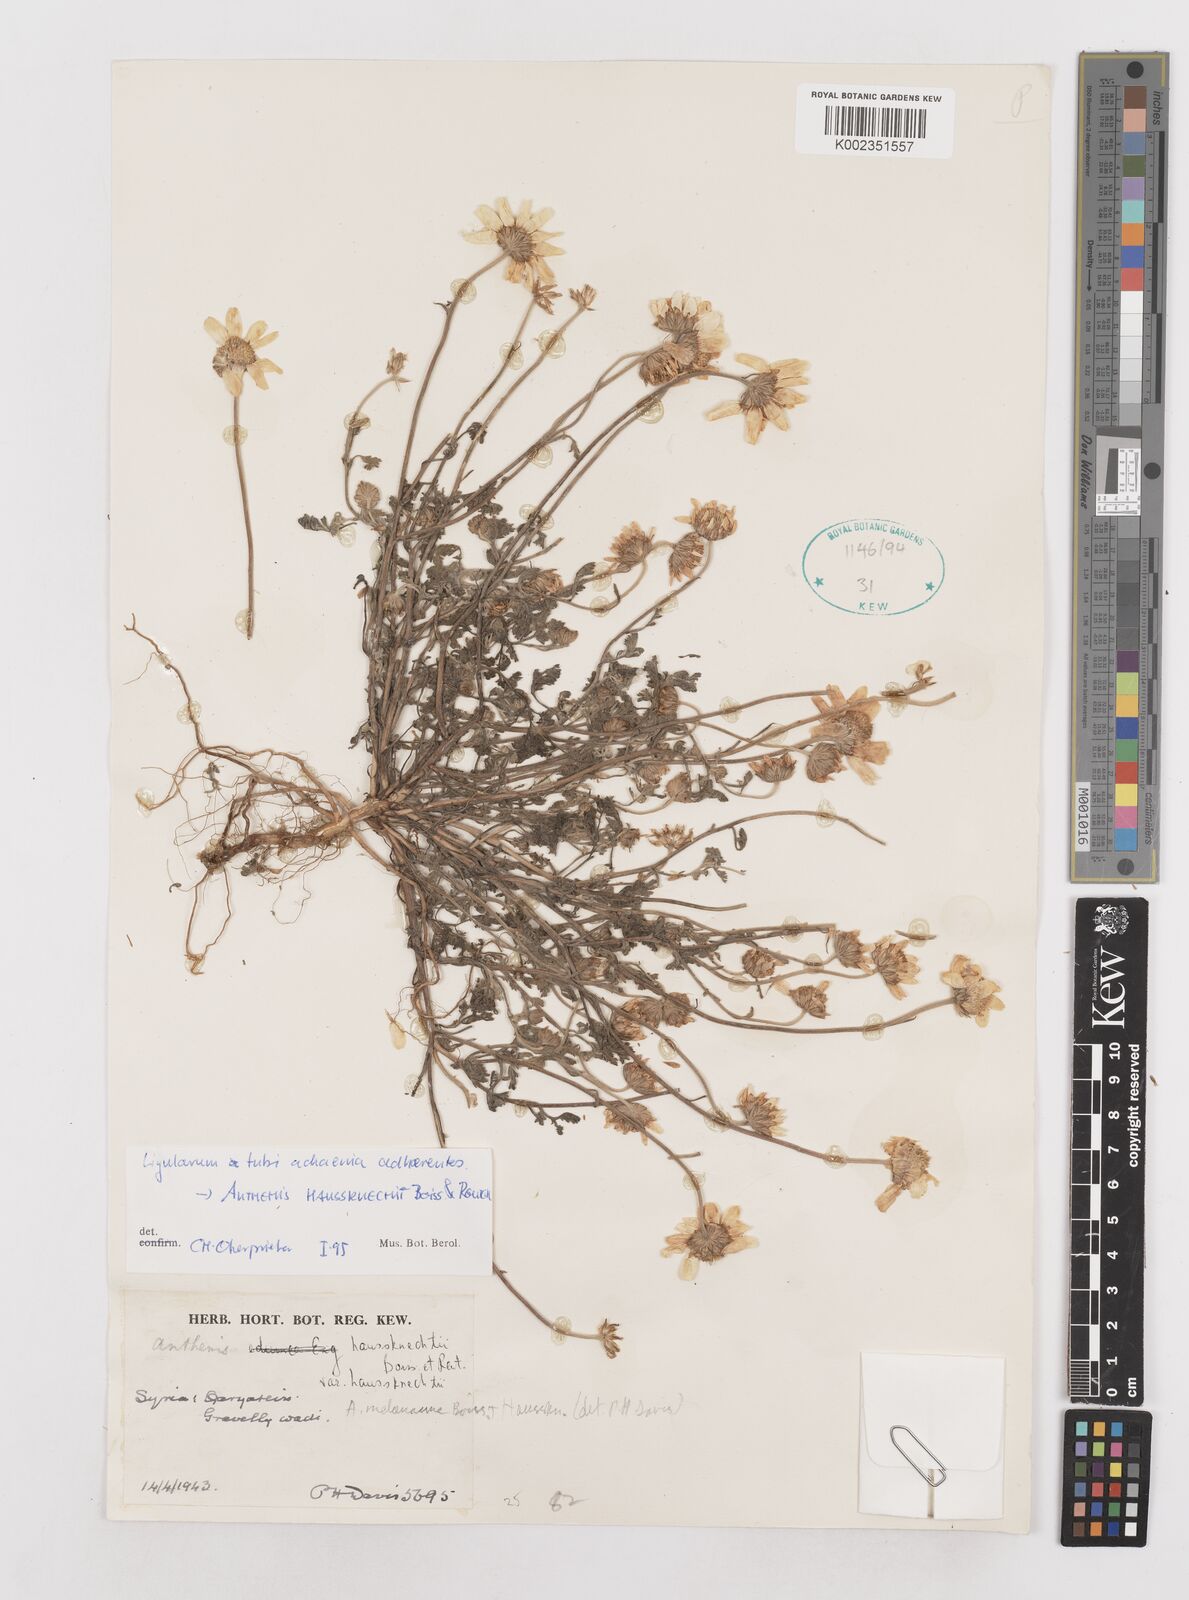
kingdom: Plantae
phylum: Tracheophyta
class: Magnoliopsida
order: Asterales
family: Asteraceae
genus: Anthemis
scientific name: Anthemis haussknechtii
